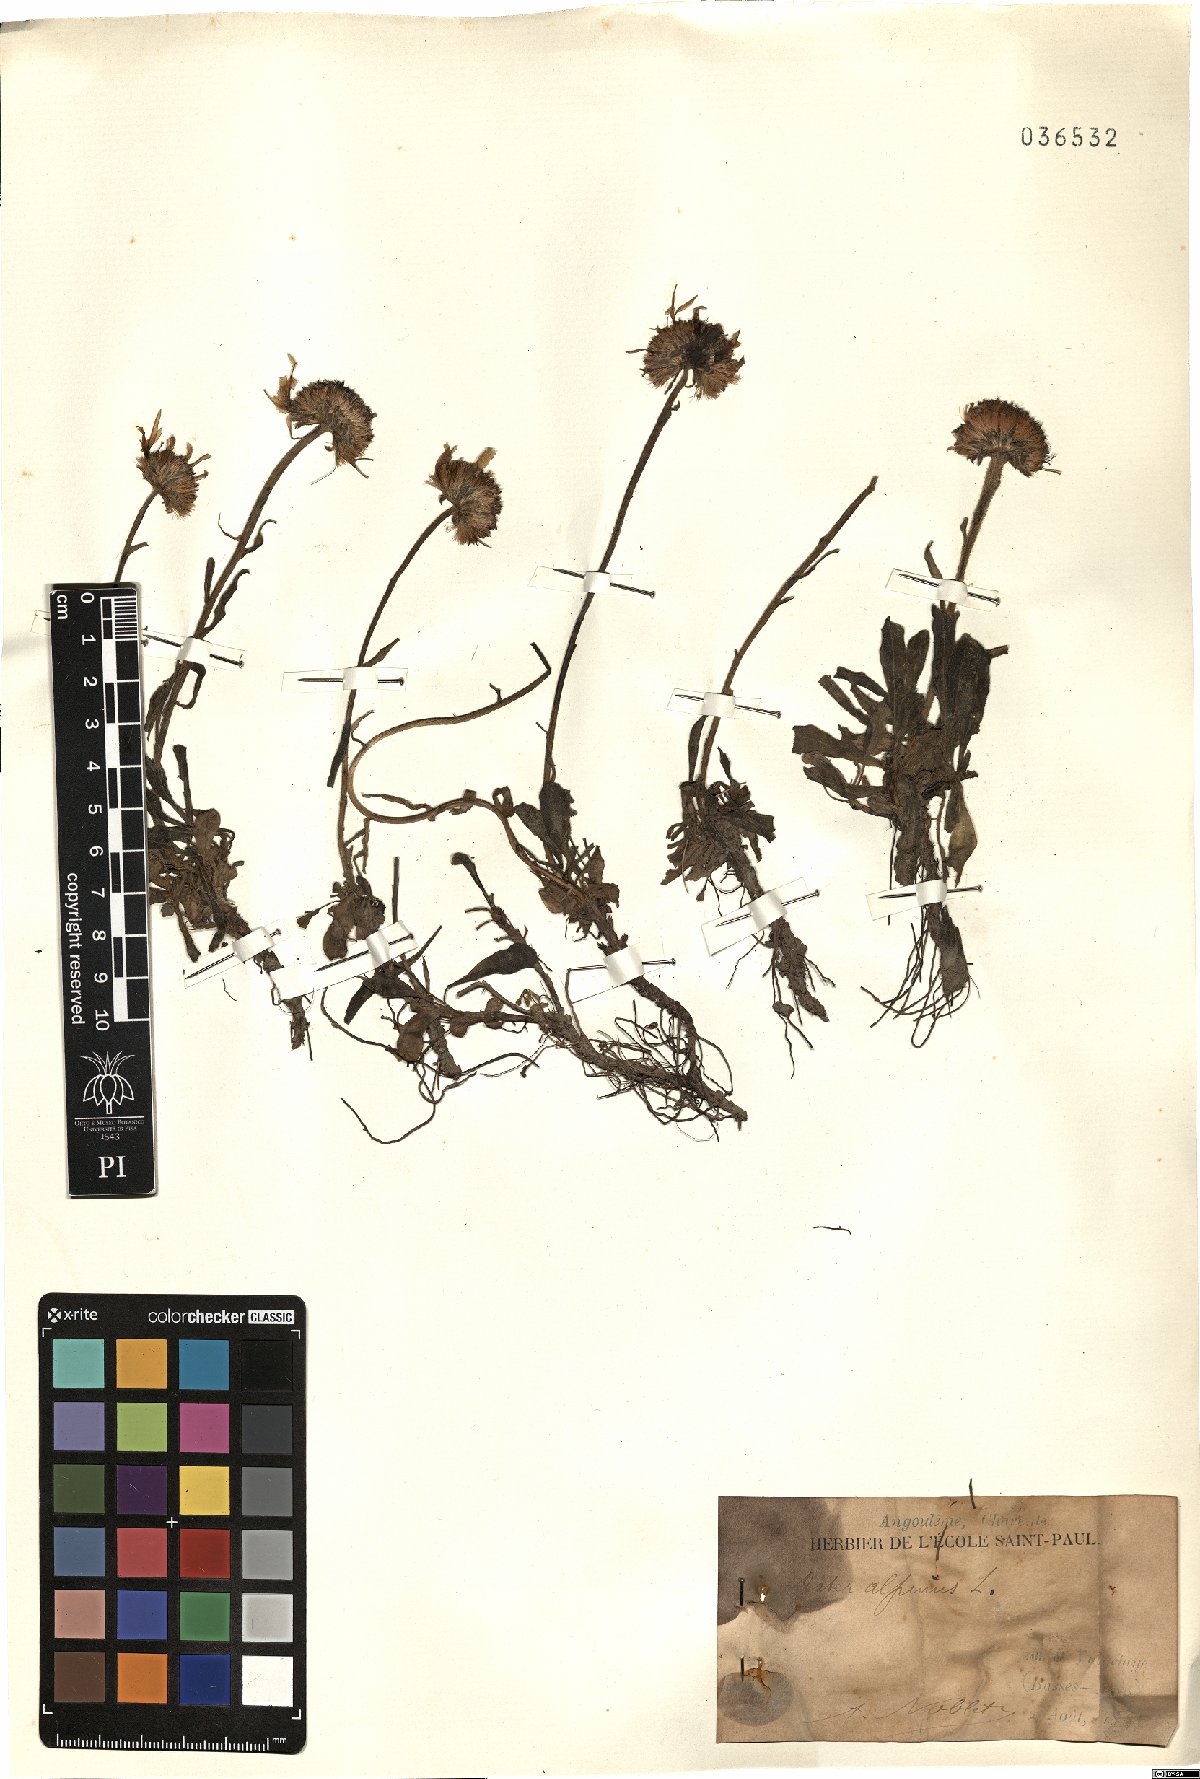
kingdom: Plantae
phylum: Tracheophyta
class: Magnoliopsida
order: Asterales
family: Asteraceae
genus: Aster
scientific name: Aster alpinus
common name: Alpine aster
